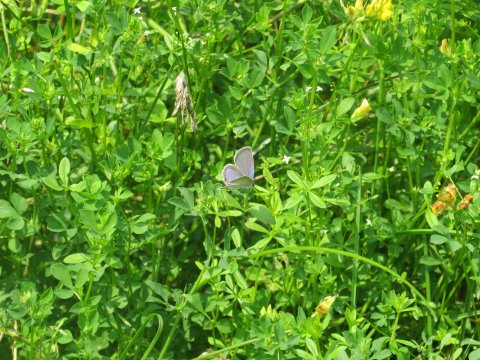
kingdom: Animalia
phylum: Arthropoda
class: Insecta
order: Lepidoptera
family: Lycaenidae
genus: Elkalyce
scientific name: Elkalyce comyntas
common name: Eastern Tailed-Blue
